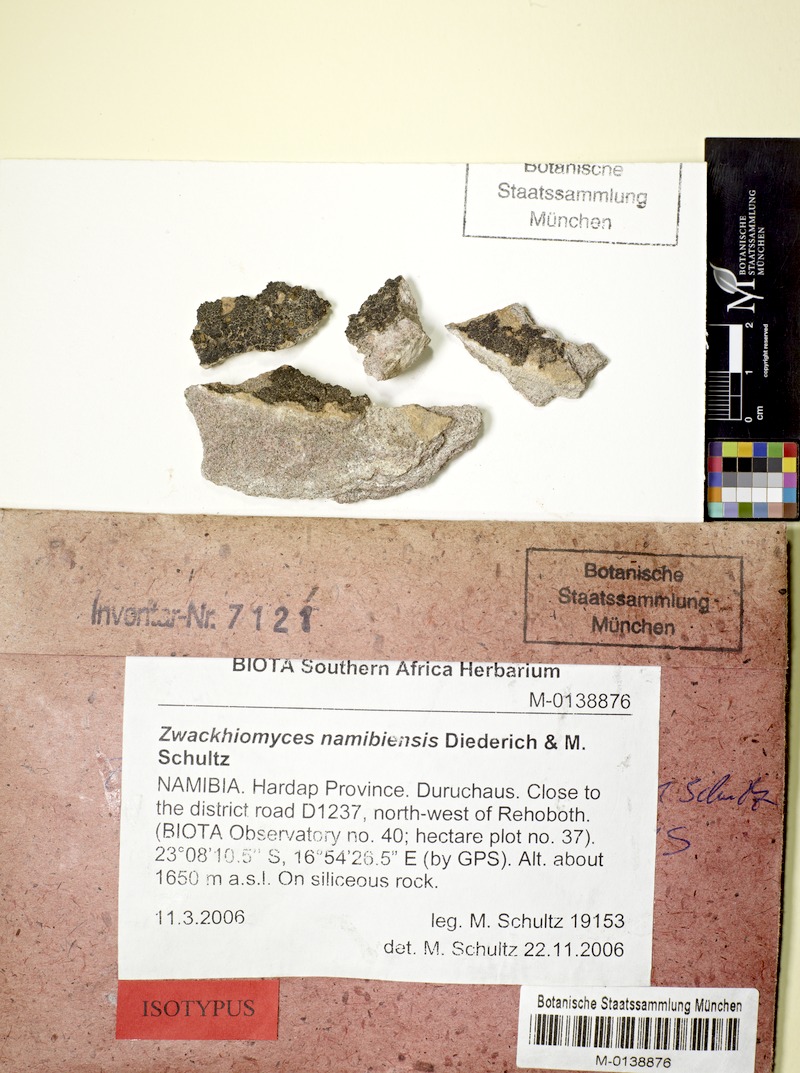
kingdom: Fungi
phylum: Ascomycota
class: Dothideomycetes
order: Collemopsidiales
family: Xanthopyreniaceae
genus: Zwackhiomyces
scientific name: Zwackhiomyces namibiensis
